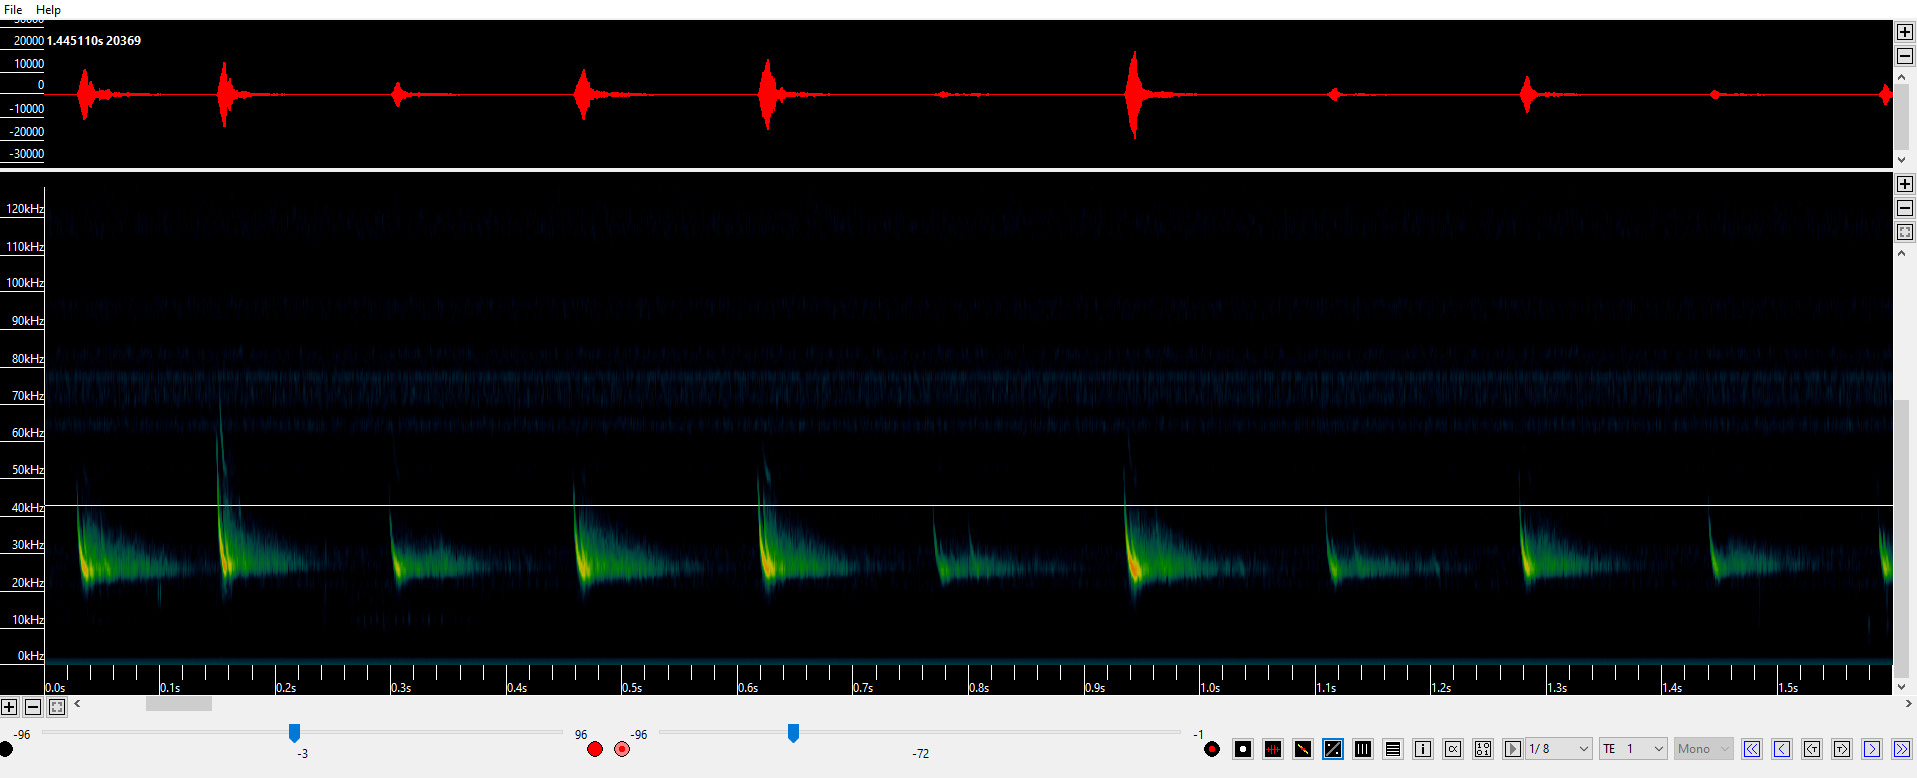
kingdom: Animalia
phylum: Chordata
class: Mammalia
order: Chiroptera
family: Vespertilionidae
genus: Eptesicus
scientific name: Eptesicus serotinus
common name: Sydflagermus
